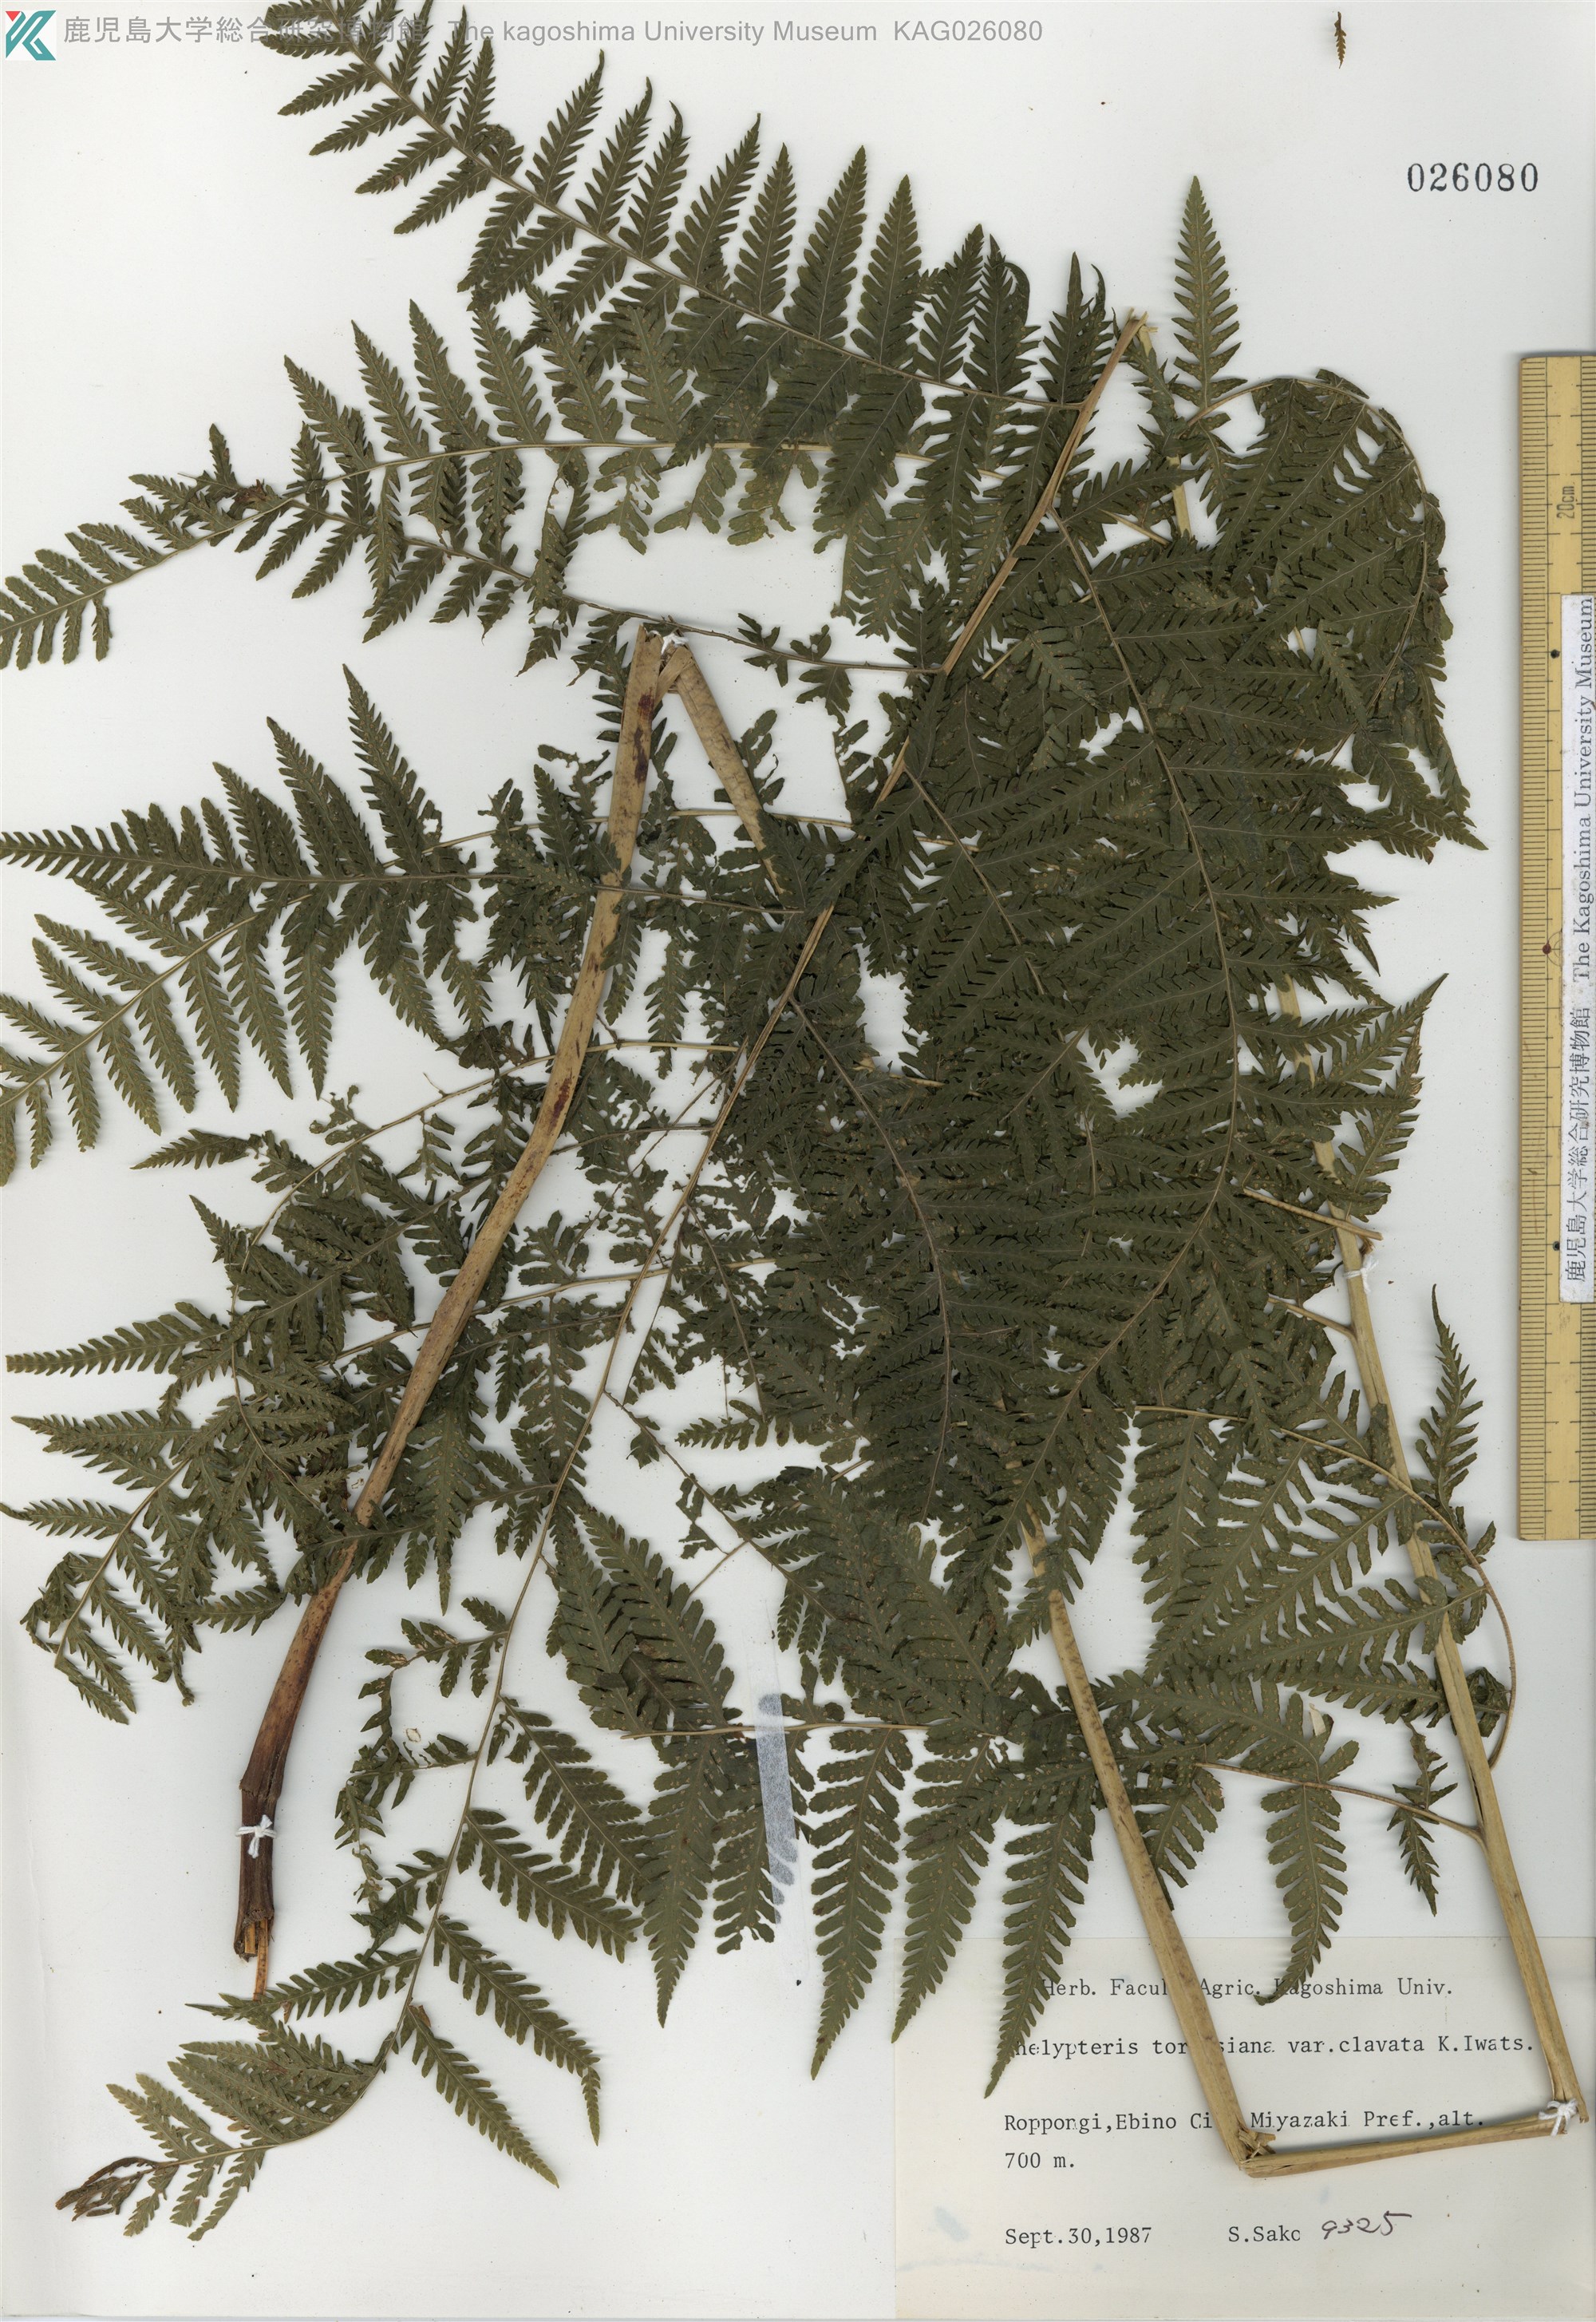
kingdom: Plantae
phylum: Tracheophyta
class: Polypodiopsida
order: Polypodiales
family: Thelypteridaceae
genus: Macrothelypteris
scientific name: Macrothelypteris oligophlebia
